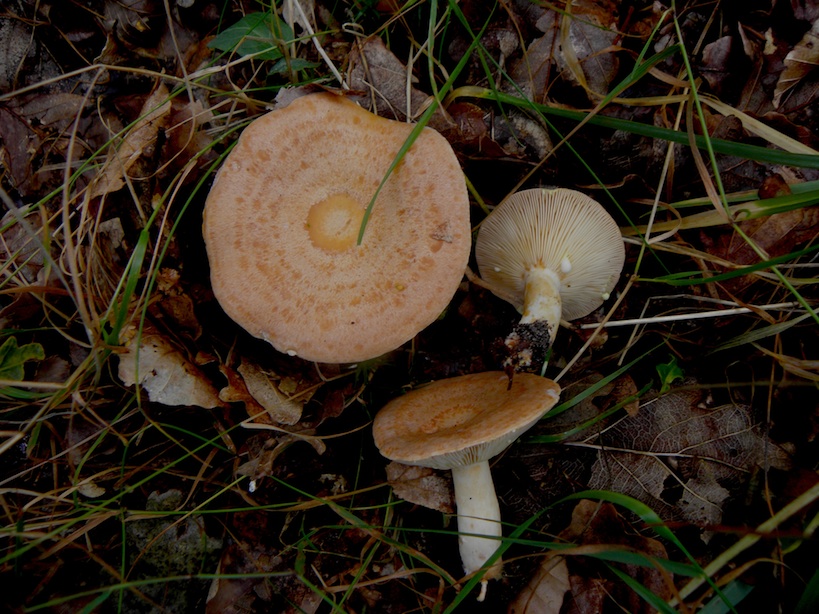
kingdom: Fungi
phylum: Basidiomycota
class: Agaricomycetes
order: Russulales
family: Russulaceae
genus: Lactarius
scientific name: Lactarius quietus
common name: ege-mælkehat
